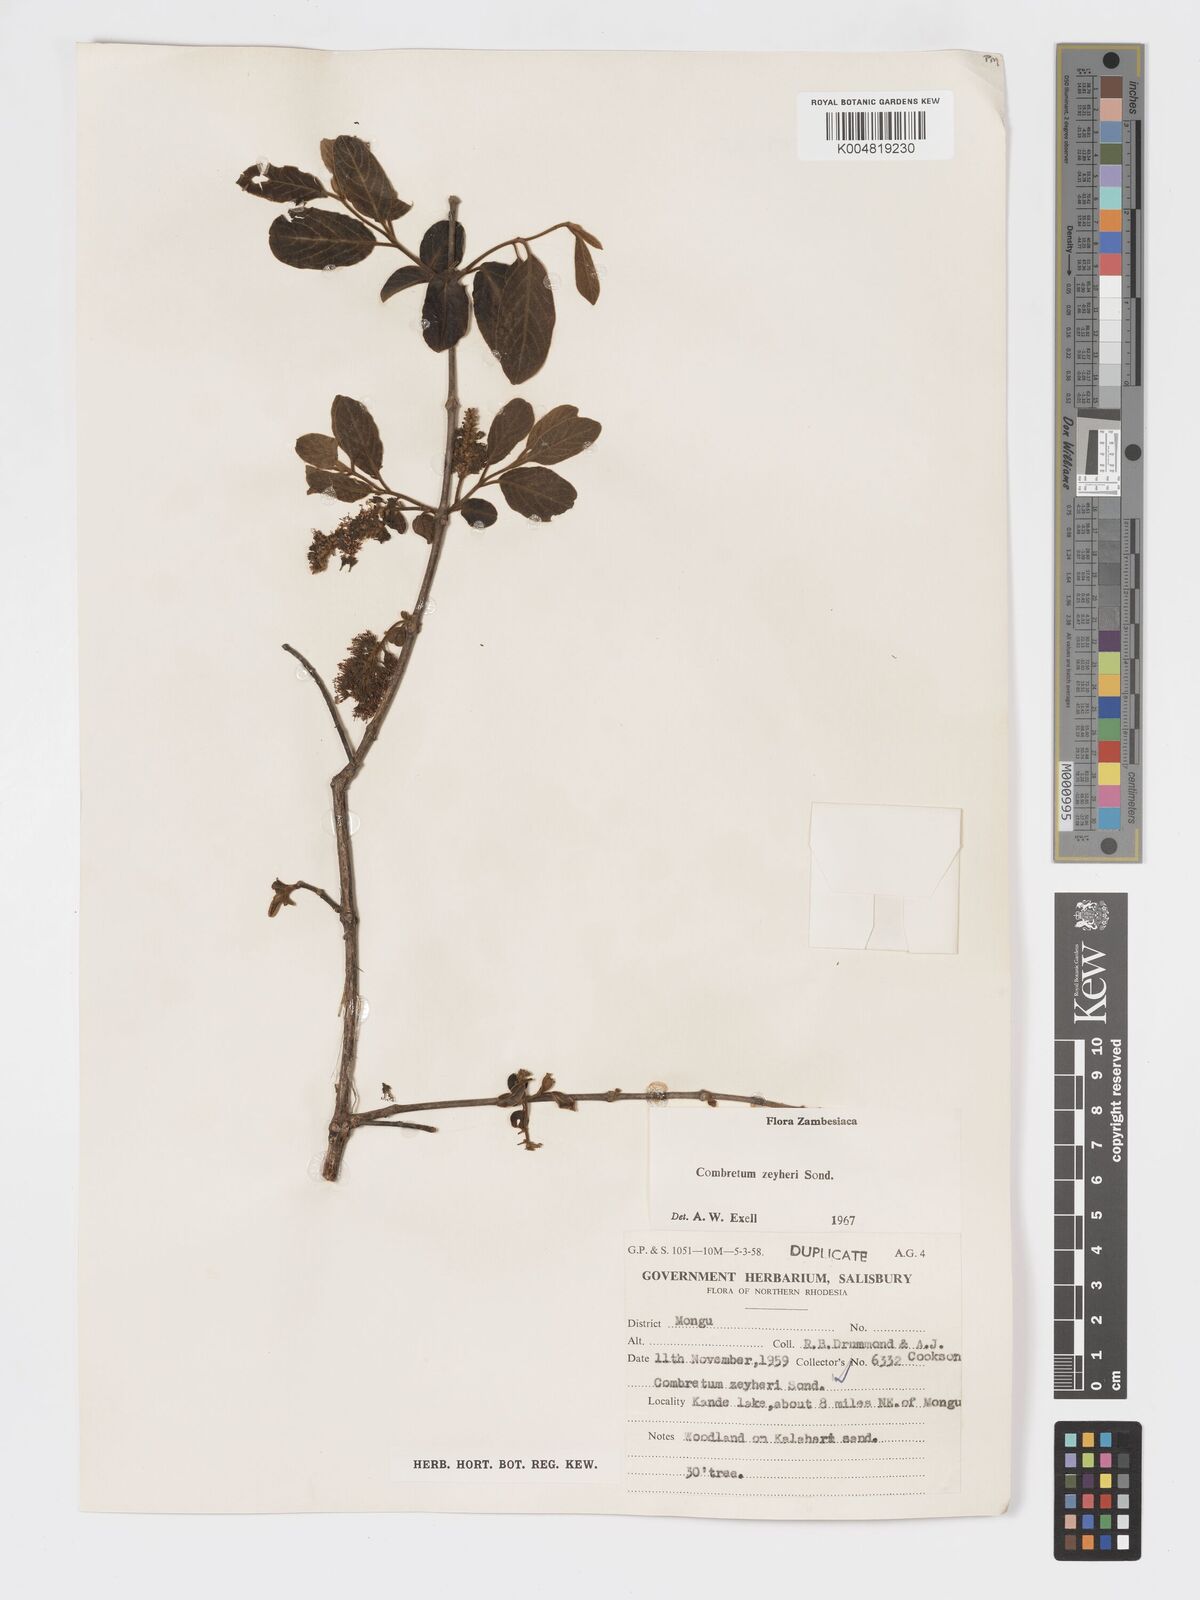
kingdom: Plantae
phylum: Tracheophyta
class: Magnoliopsida
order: Myrtales
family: Combretaceae
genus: Combretum
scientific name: Combretum zeyheri
